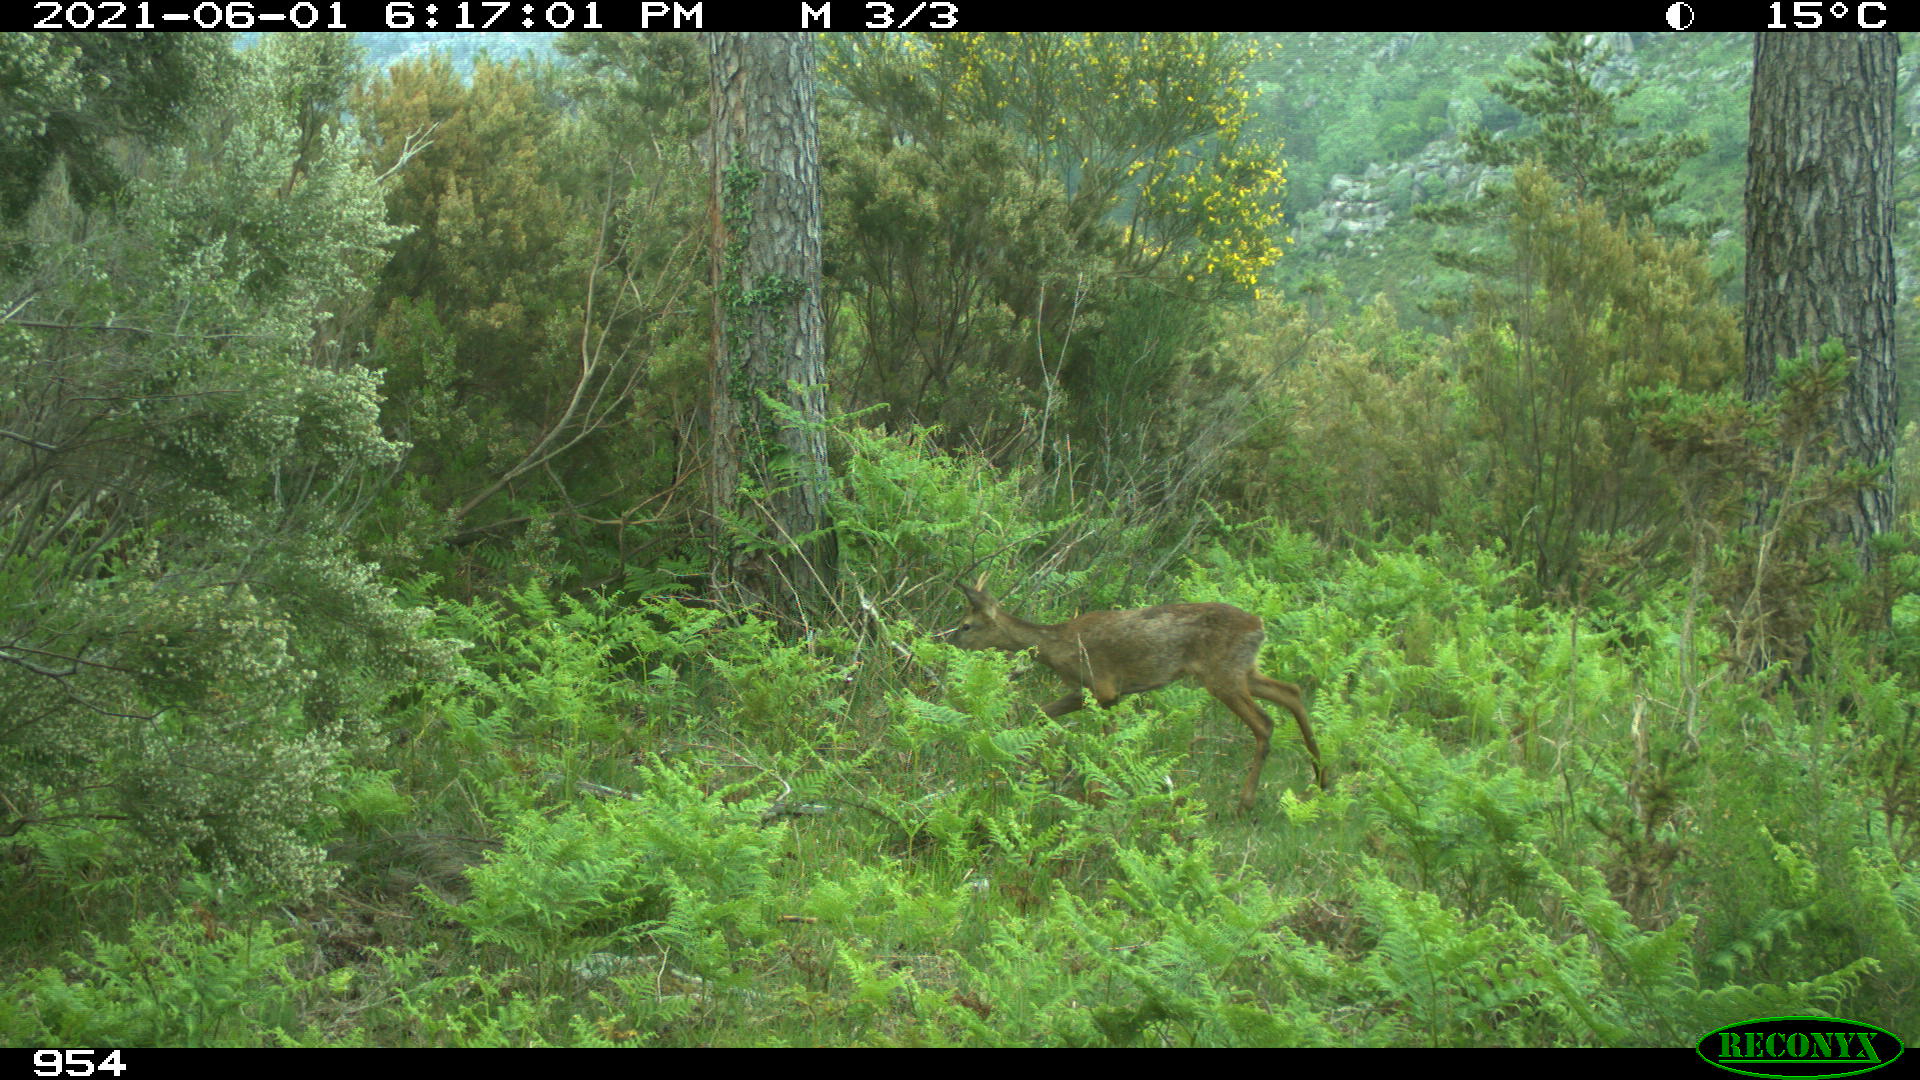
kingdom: Animalia
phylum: Chordata
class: Mammalia
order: Artiodactyla
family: Cervidae
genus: Capreolus
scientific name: Capreolus capreolus
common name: Western roe deer
